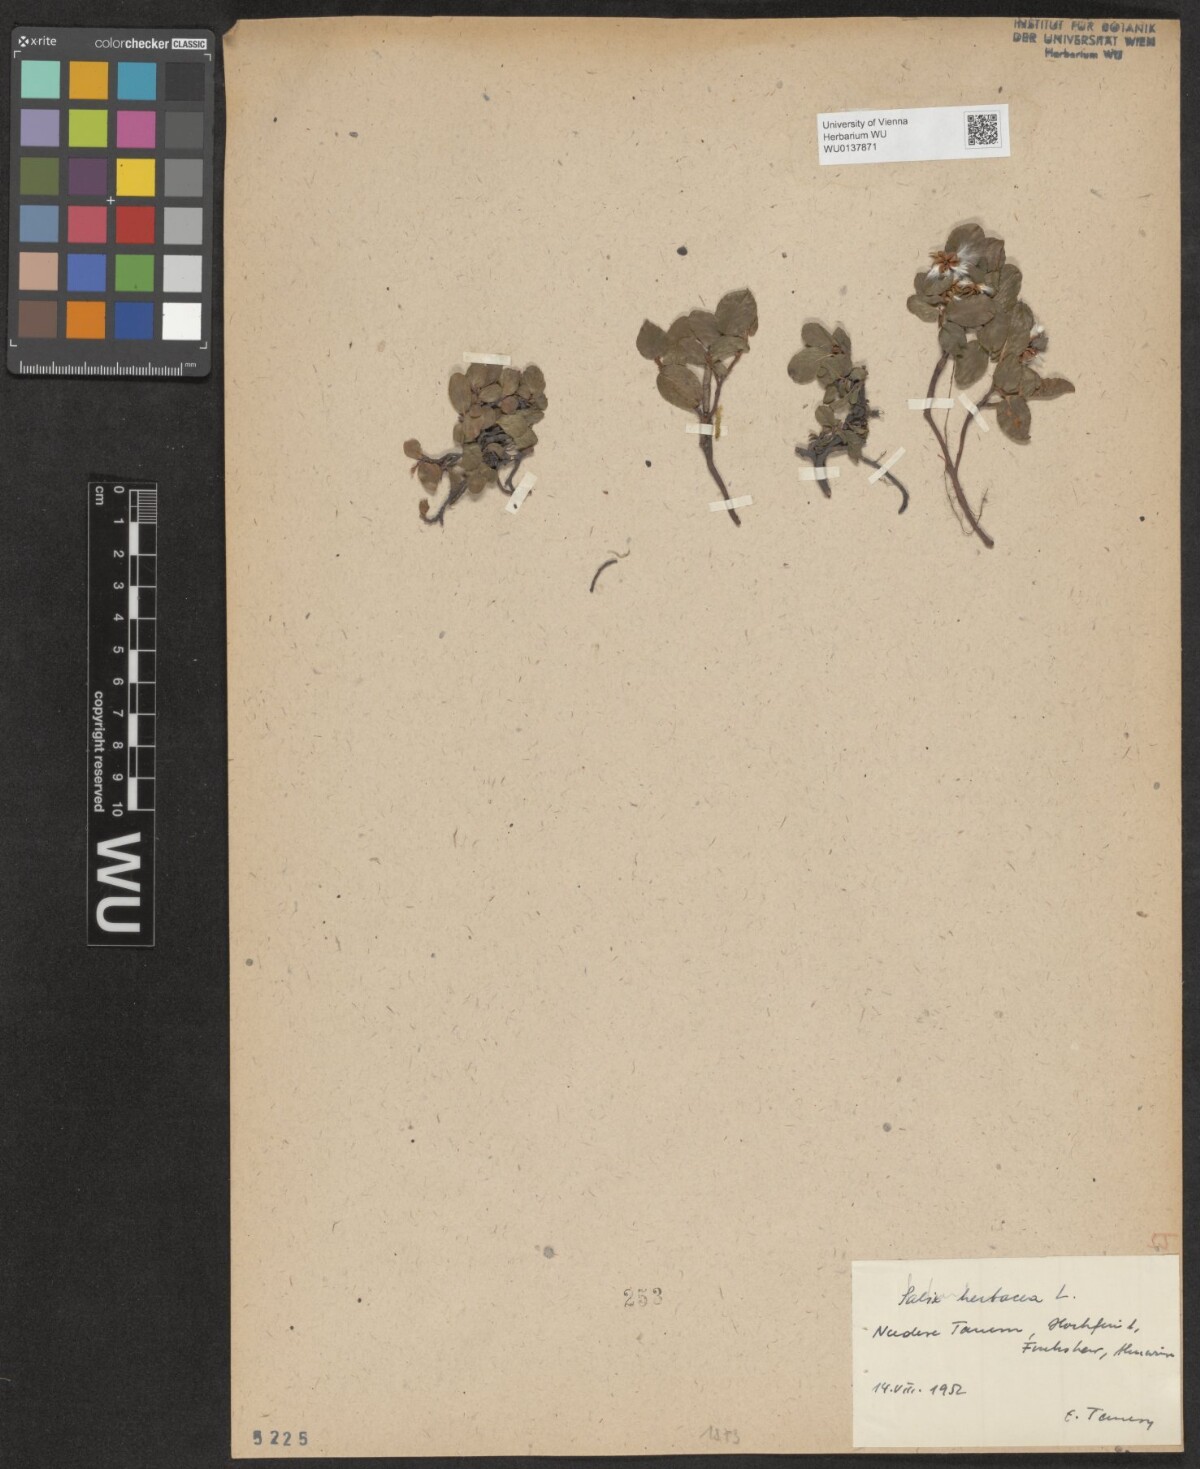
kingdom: Plantae
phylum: Tracheophyta
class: Magnoliopsida
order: Malpighiales
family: Salicaceae
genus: Salix
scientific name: Salix herbacea
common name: Dwarf willow
